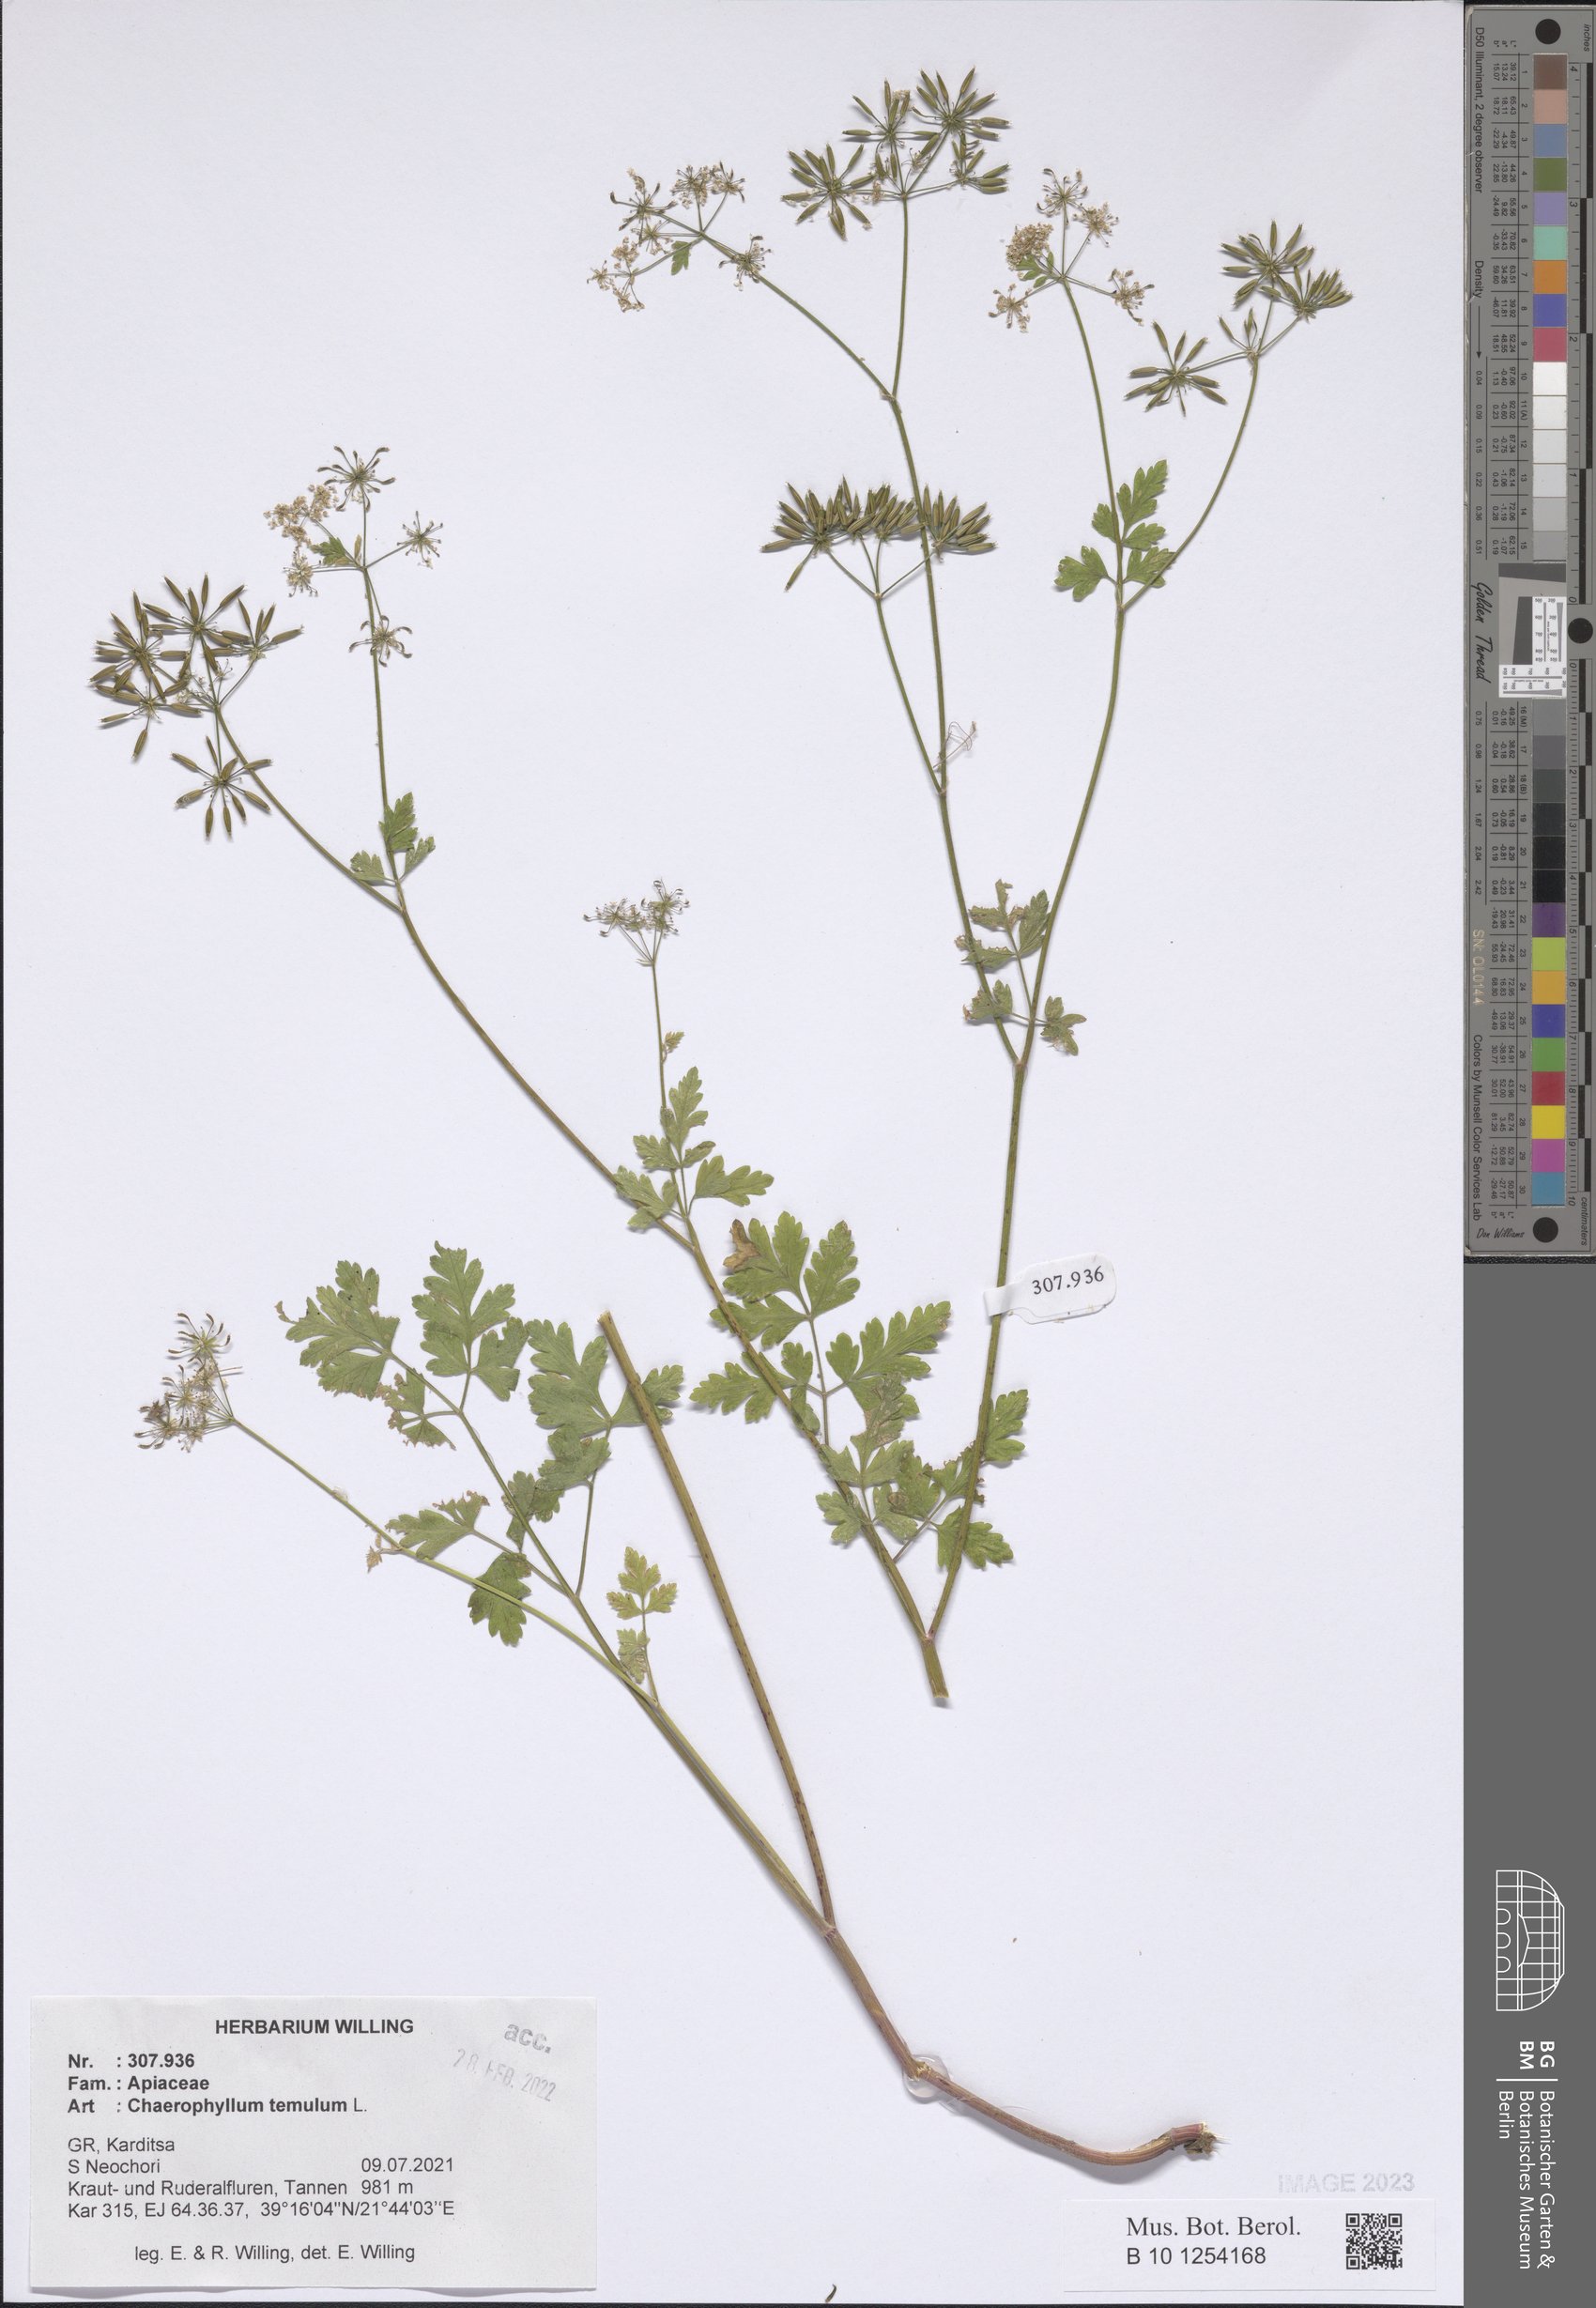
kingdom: Plantae
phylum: Tracheophyta
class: Magnoliopsida
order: Apiales
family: Apiaceae
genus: Chaerophyllum
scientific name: Chaerophyllum temulum
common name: Rough chervil
